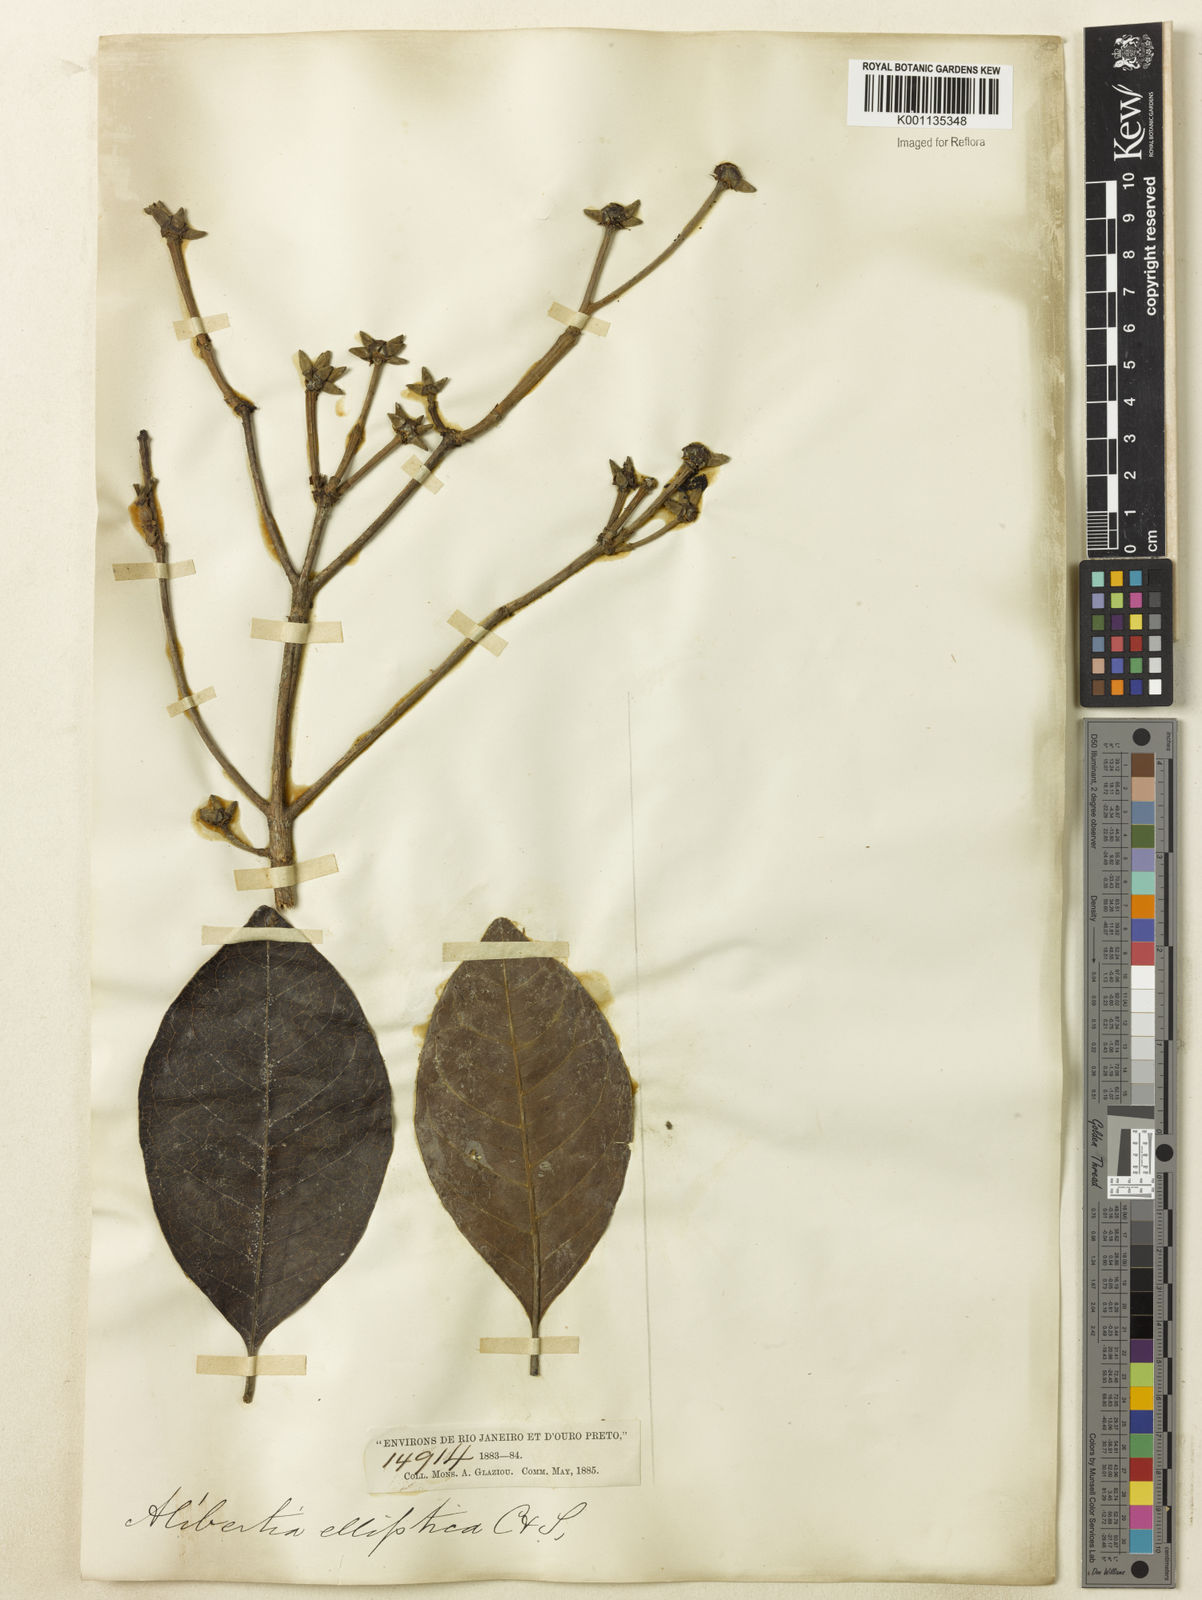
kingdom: Plantae
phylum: Tracheophyta
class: Magnoliopsida
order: Gentianales
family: Rubiaceae
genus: Cordiera
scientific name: Cordiera elliptica
